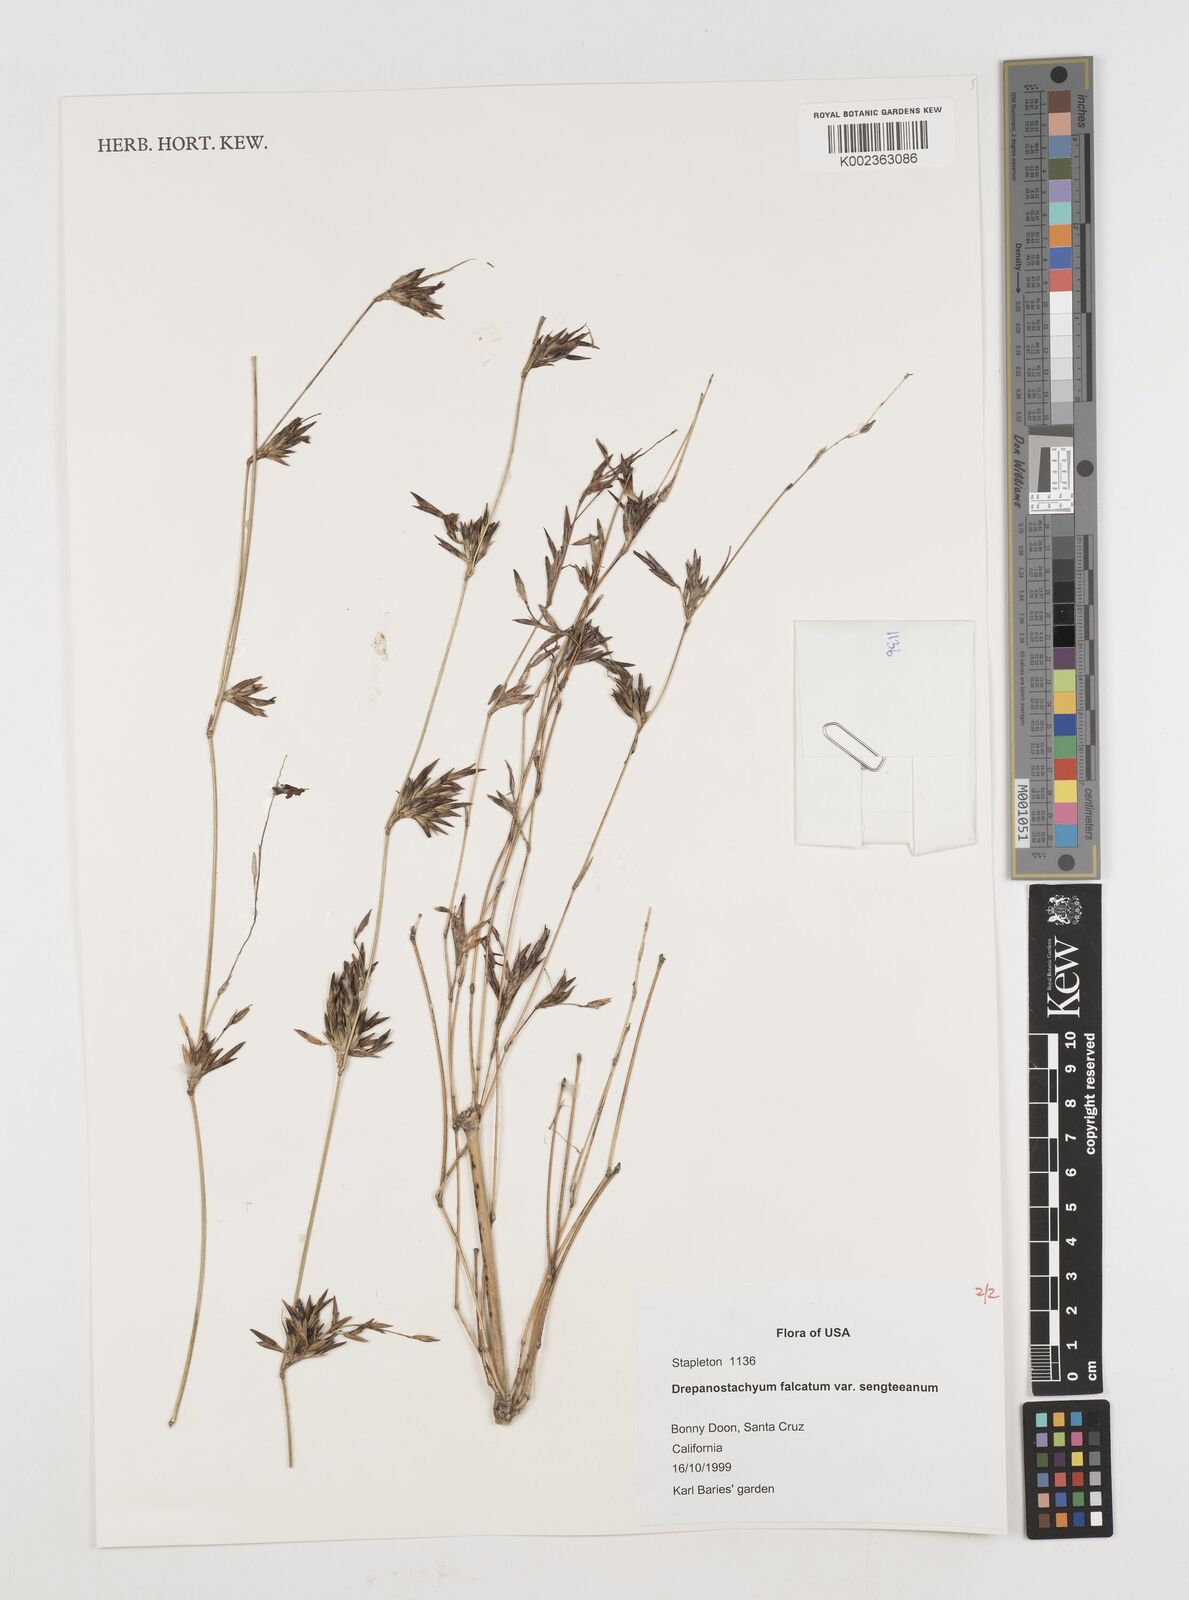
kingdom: Plantae
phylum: Tracheophyta
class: Liliopsida
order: Poales
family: Poaceae
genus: Drepanostachyum
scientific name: Drepanostachyum falcatum
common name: Himalayan bamboo
